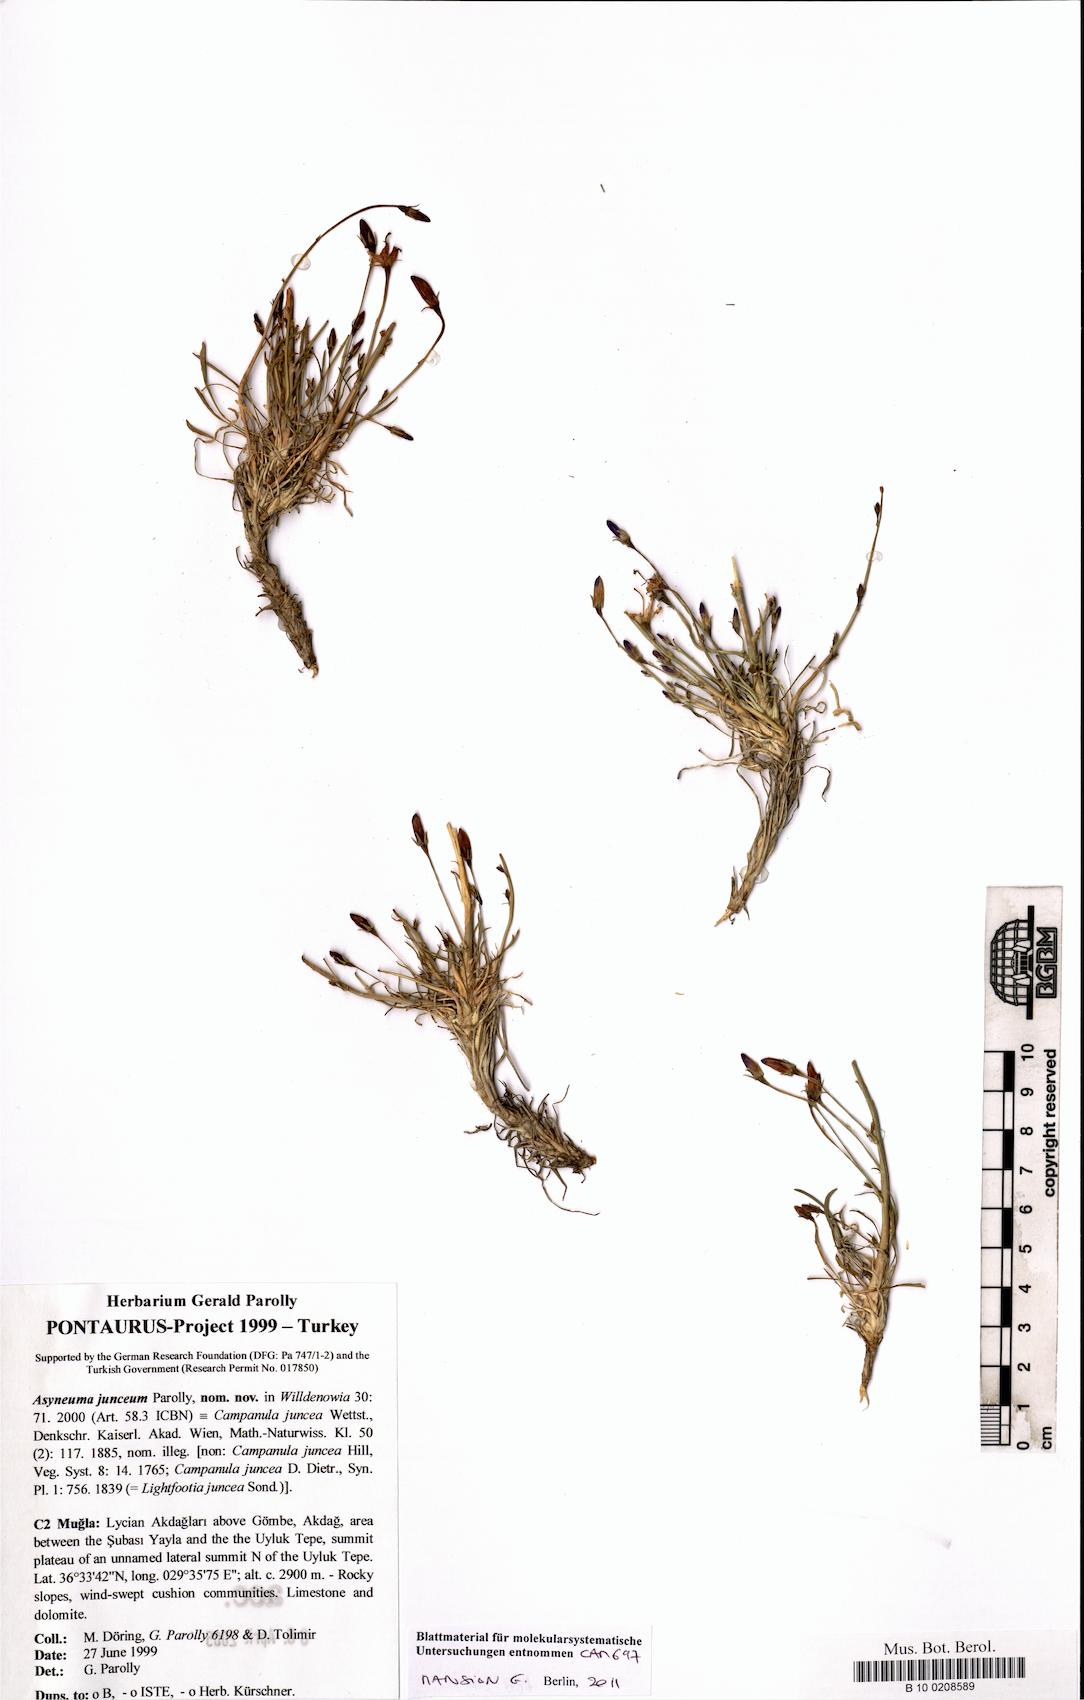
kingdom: Plantae
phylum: Tracheophyta
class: Magnoliopsida
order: Asterales
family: Campanulaceae
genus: Asyneuma
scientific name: Asyneuma junceum
